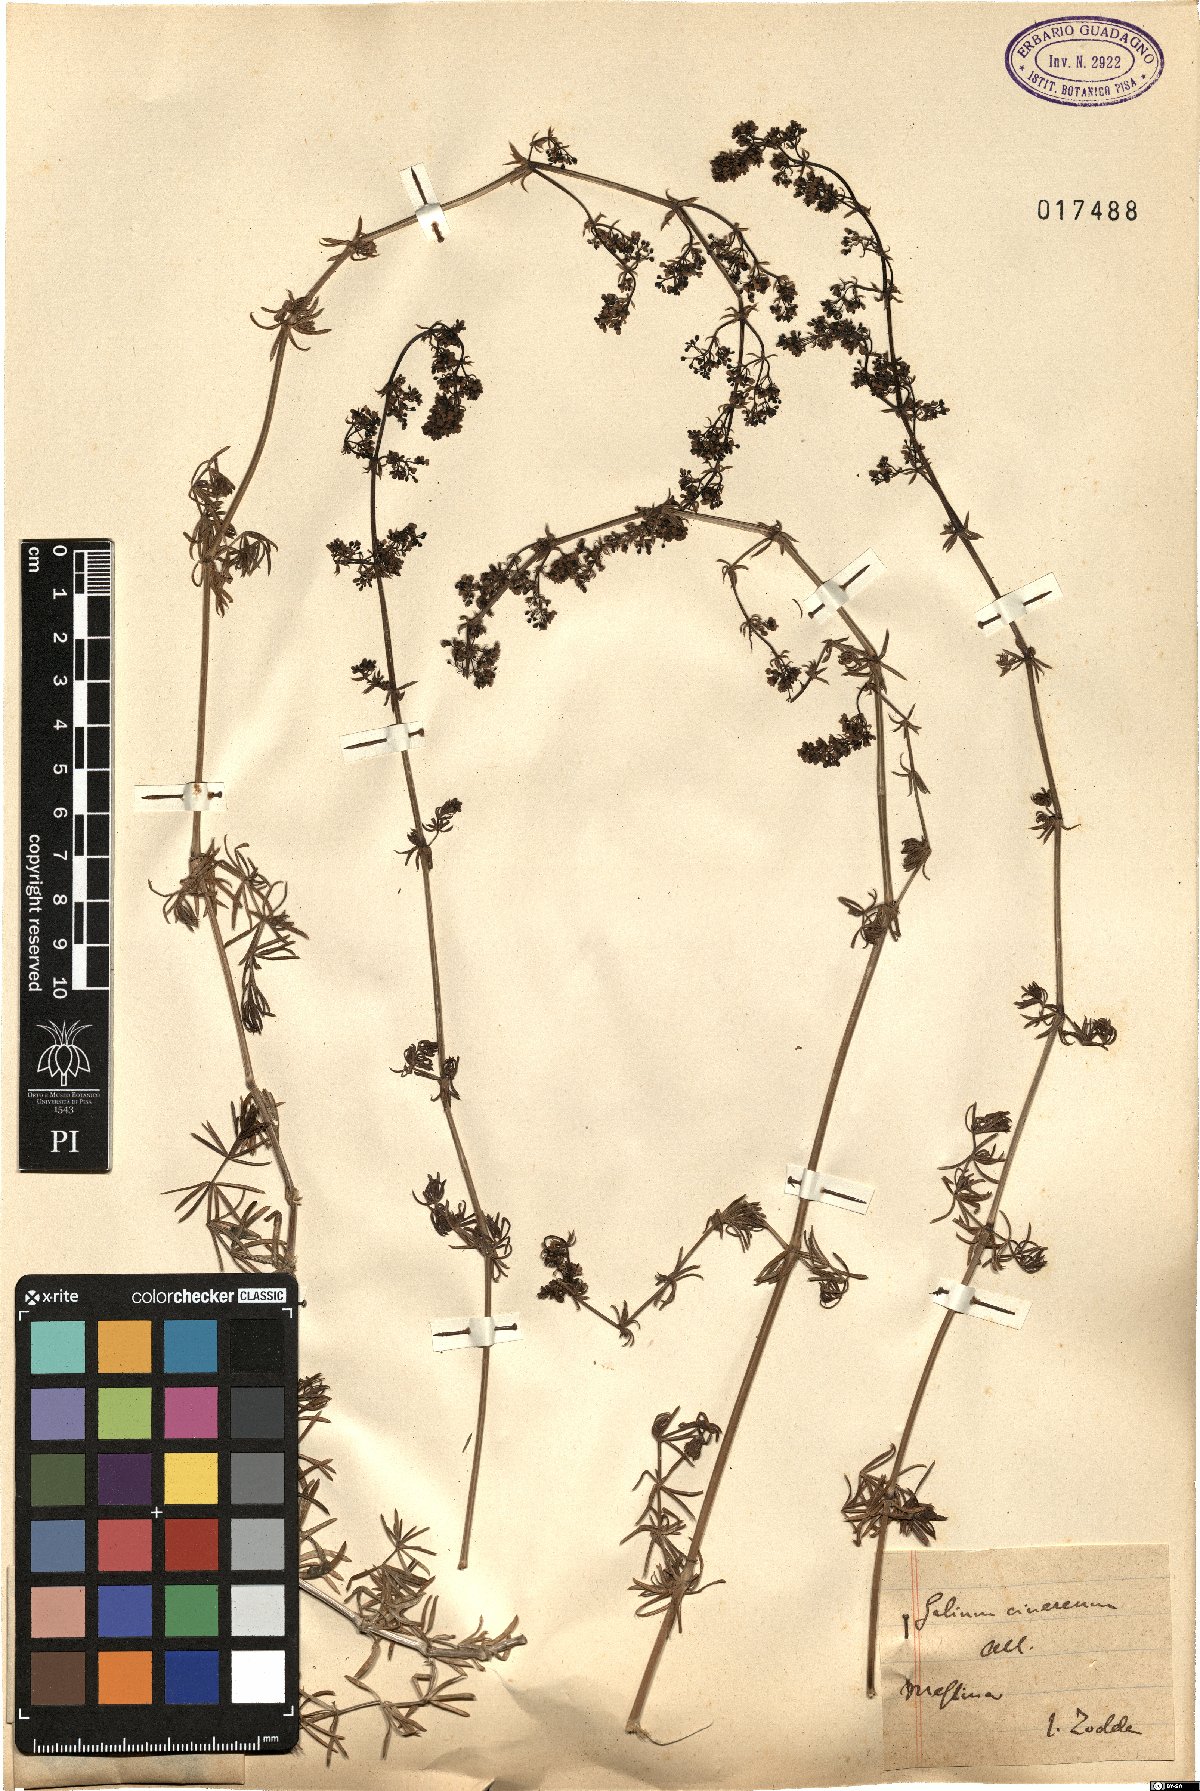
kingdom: Plantae
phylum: Tracheophyta
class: Magnoliopsida
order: Gentianales
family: Rubiaceae
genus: Galium
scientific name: Galium cinereum
